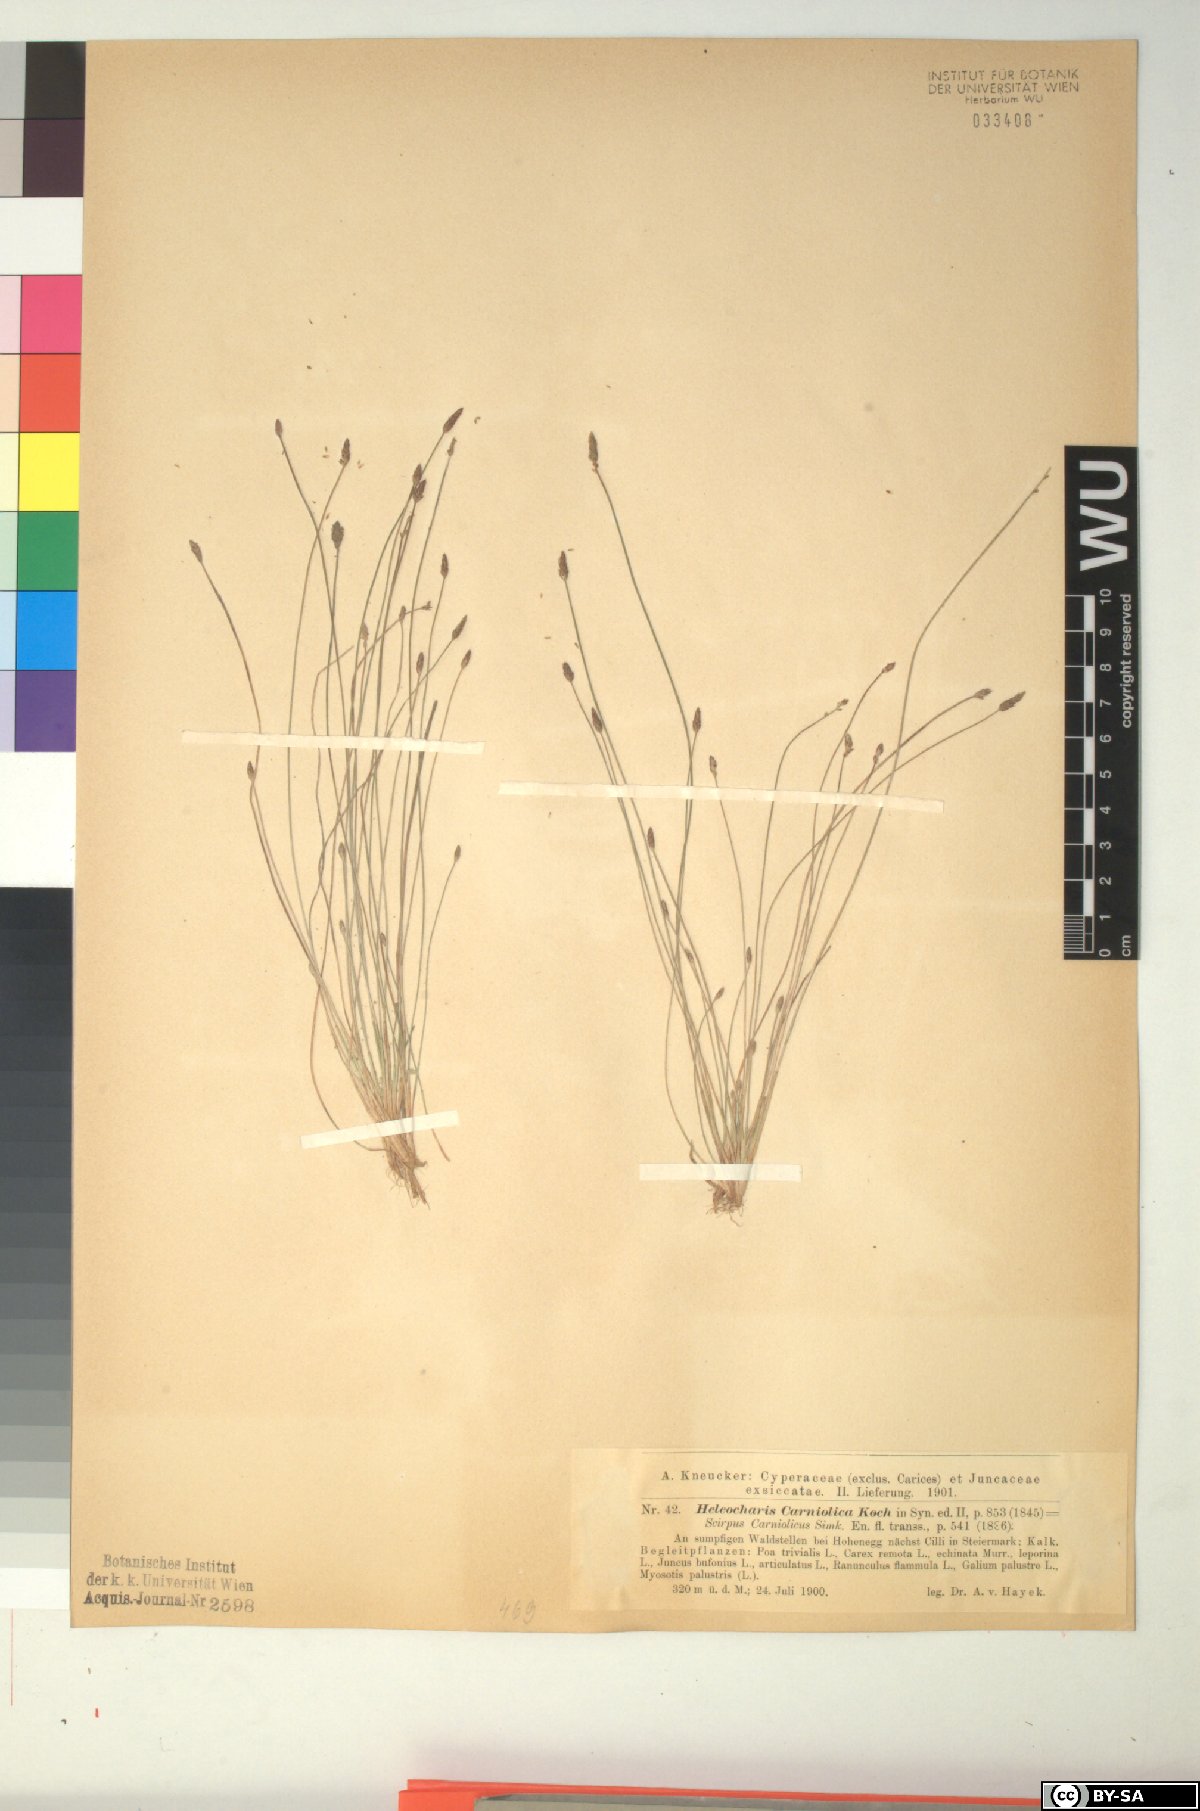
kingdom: Plantae
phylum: Tracheophyta
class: Liliopsida
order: Poales
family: Cyperaceae
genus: Eleocharis
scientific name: Eleocharis carniolica
